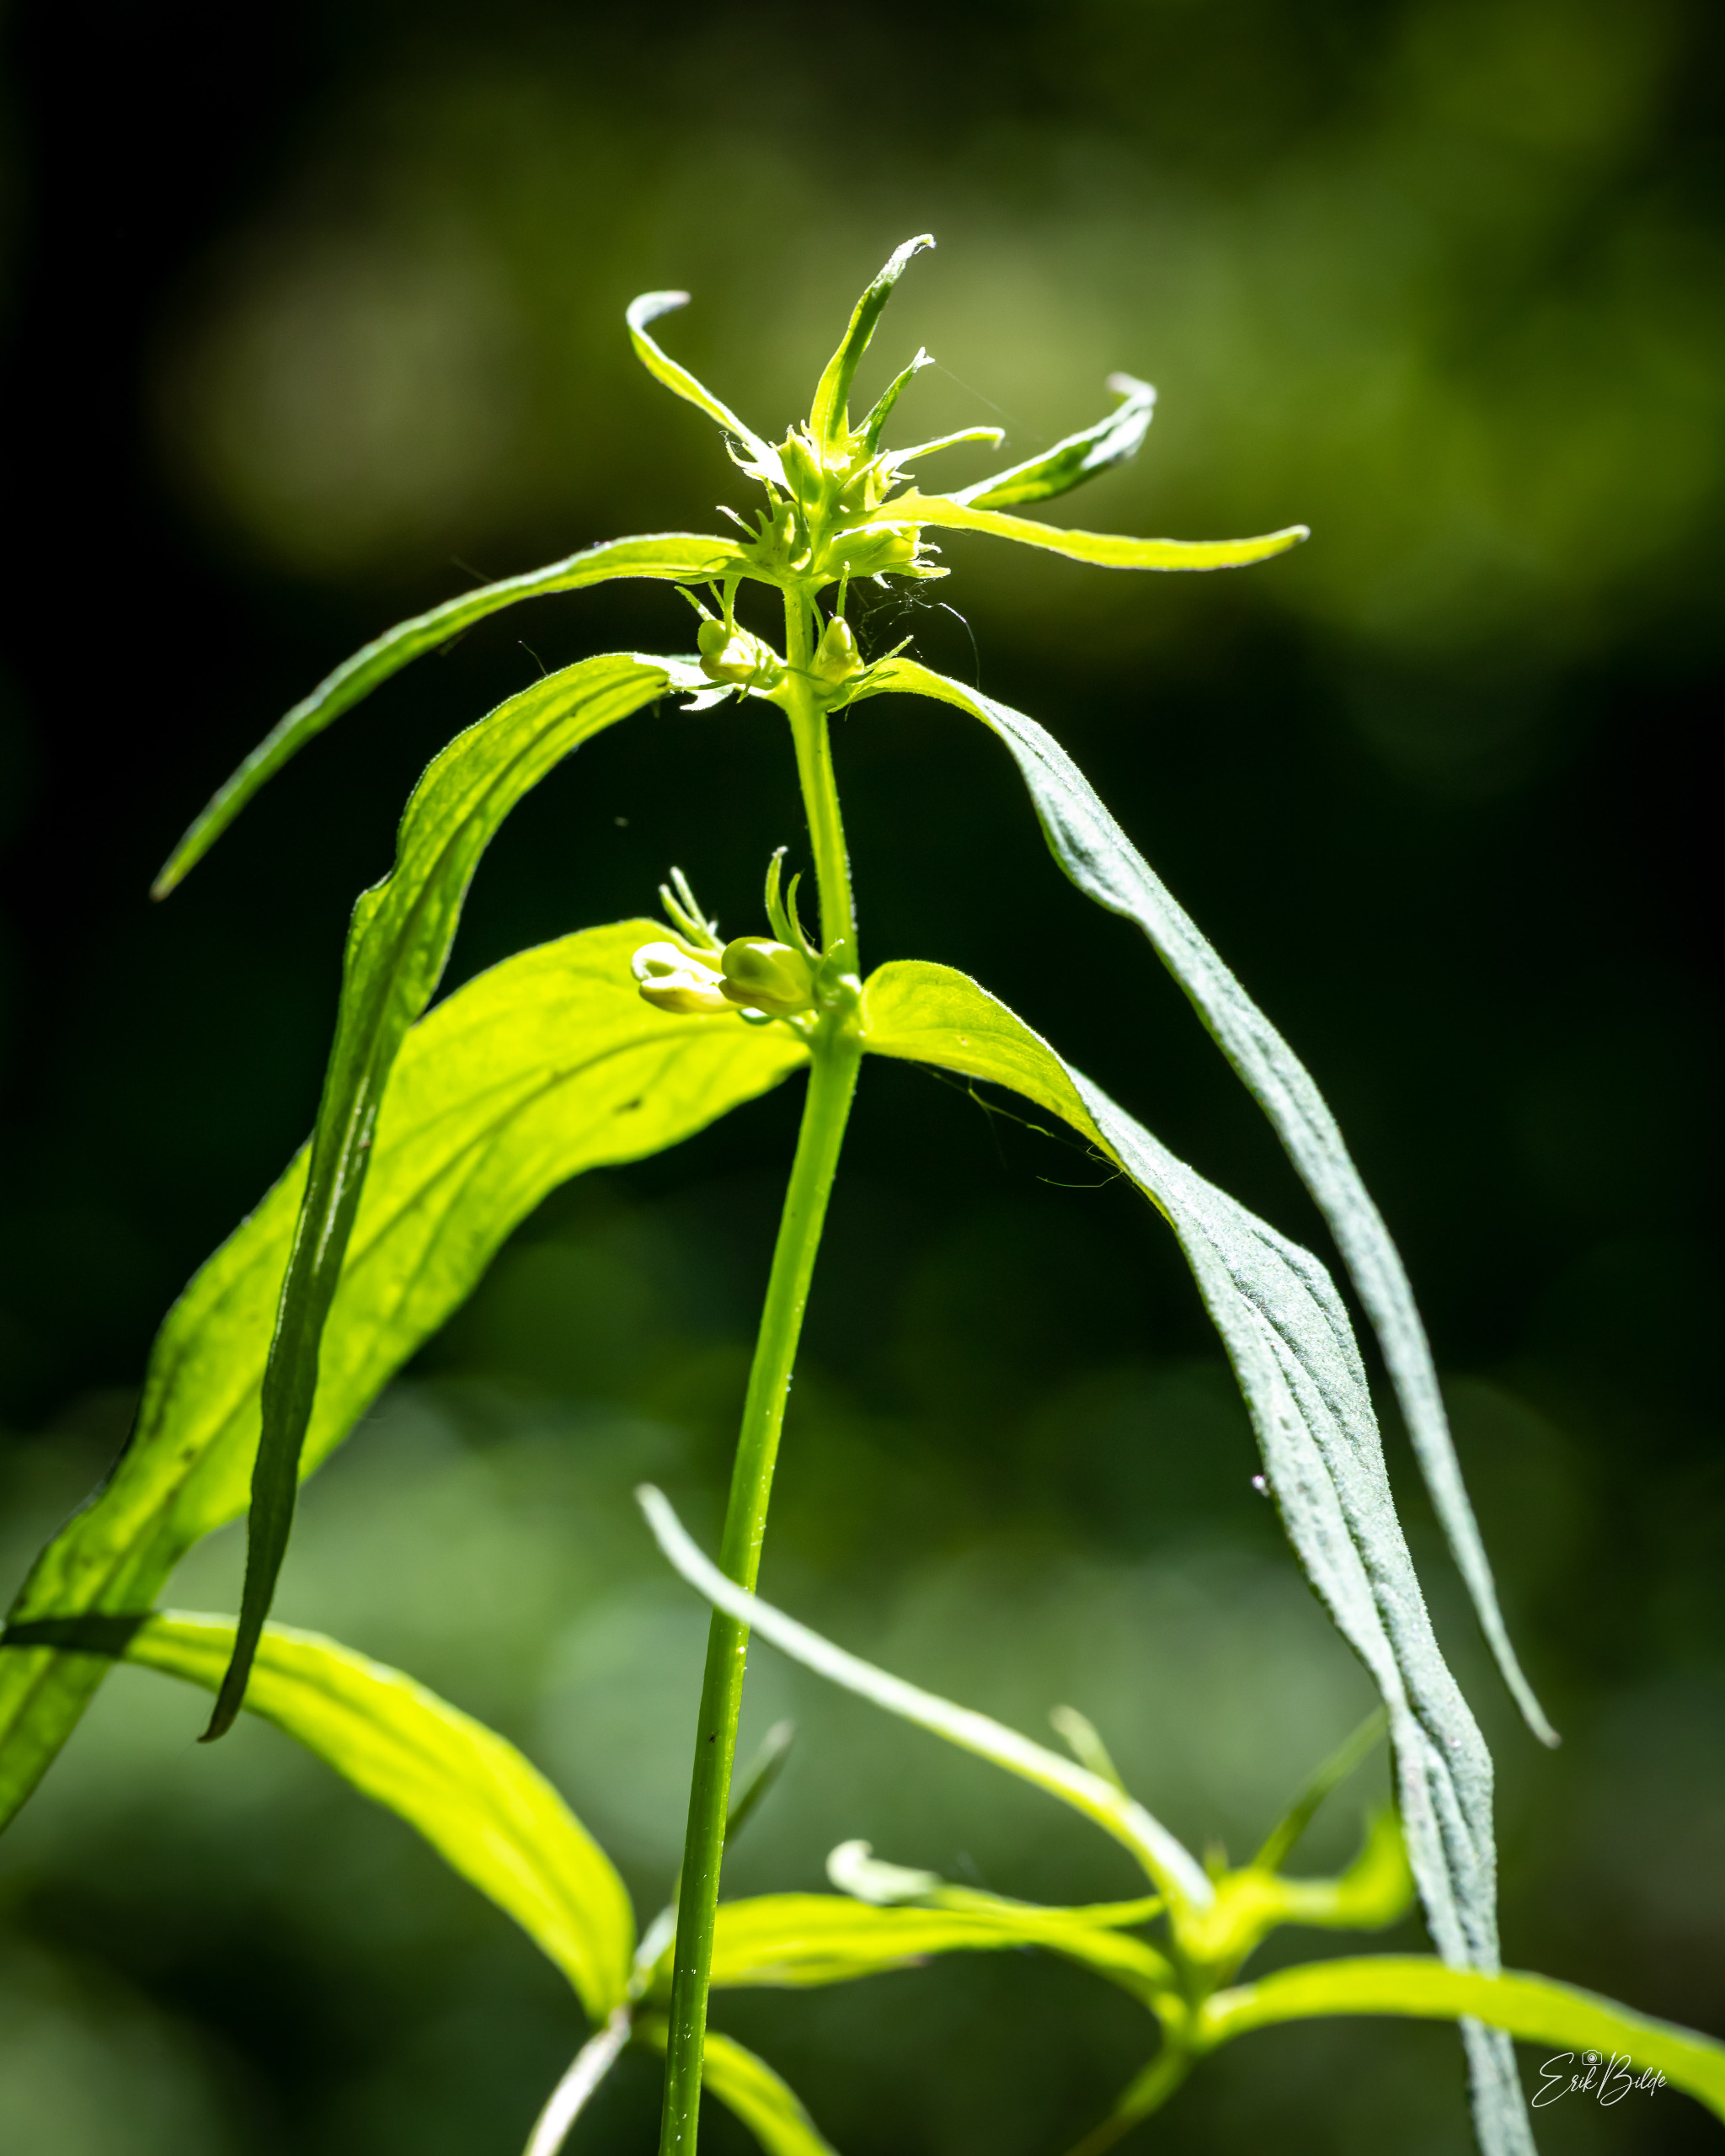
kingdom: Plantae
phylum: Tracheophyta
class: Magnoliopsida
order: Lamiales
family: Orobanchaceae
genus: Melampyrum
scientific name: Melampyrum pratense
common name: Almindelig kohvede
